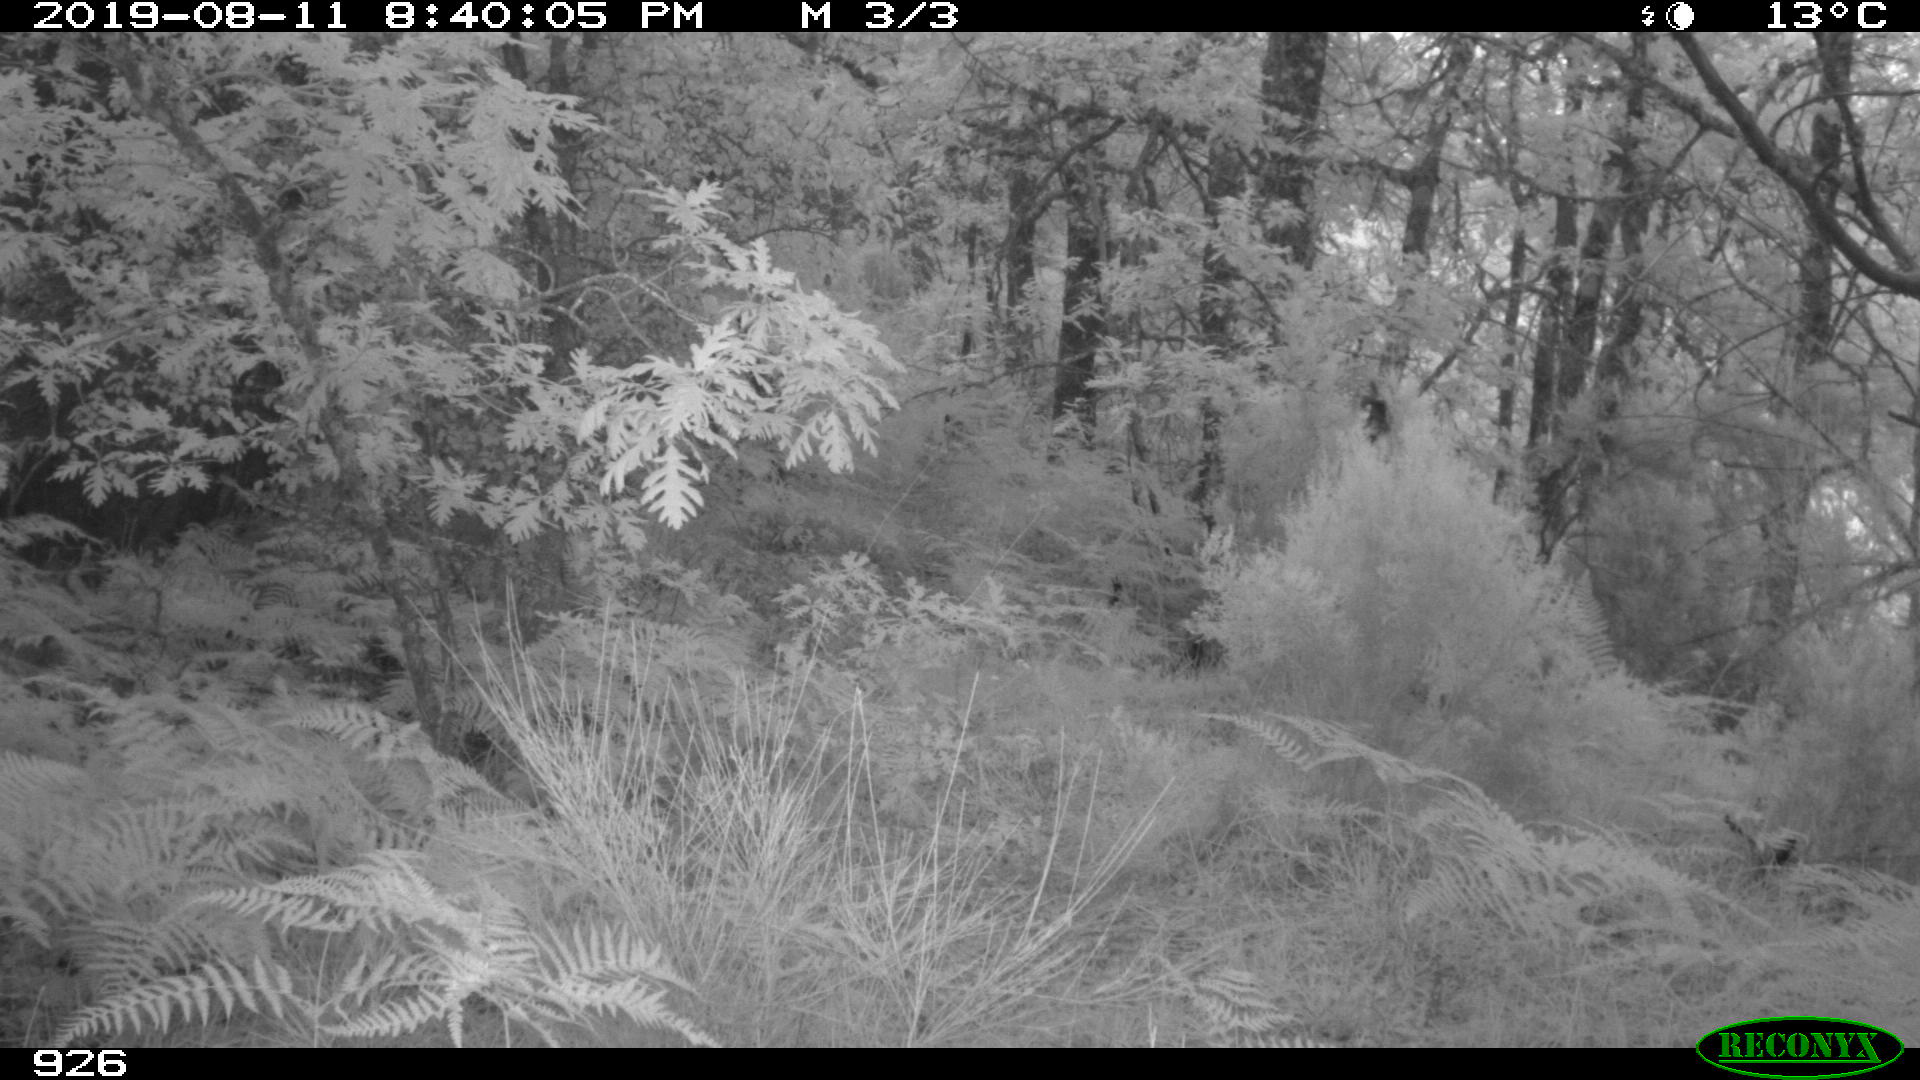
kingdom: Animalia
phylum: Chordata
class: Mammalia
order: Artiodactyla
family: Cervidae
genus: Capreolus
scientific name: Capreolus capreolus
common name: Western roe deer
